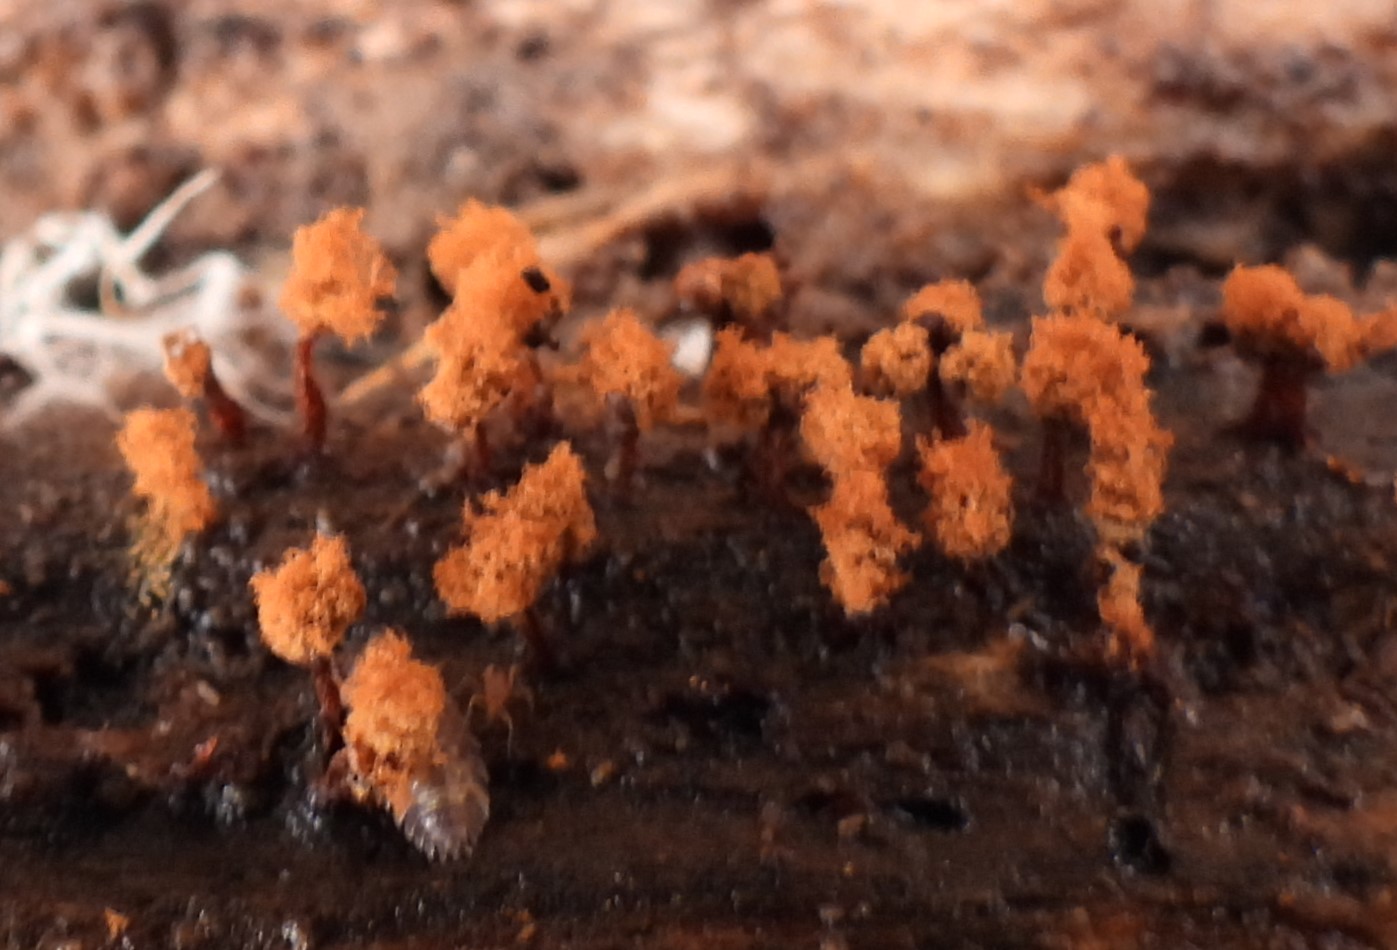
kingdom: Protozoa
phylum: Mycetozoa
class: Myxomycetes
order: Trichiales
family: Trichiaceae
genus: Metatrichia
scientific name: Metatrichia floriformis
